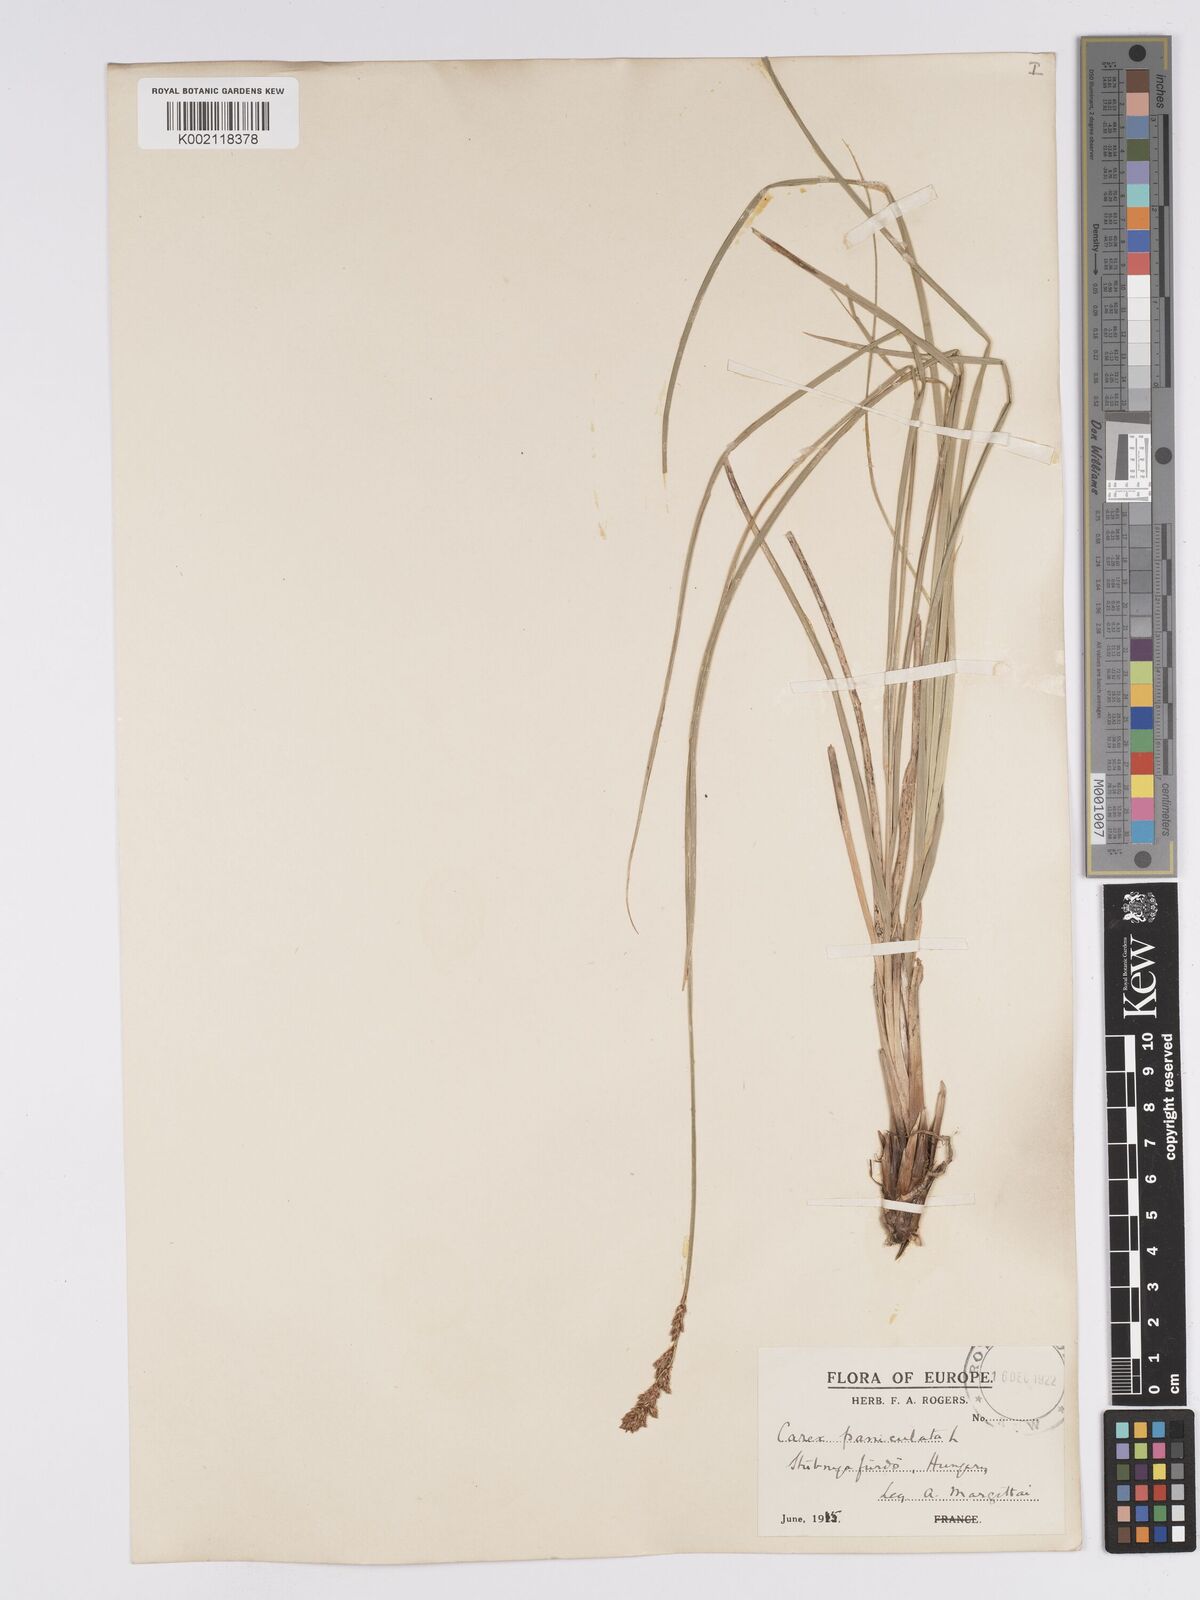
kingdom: Plantae
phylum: Tracheophyta
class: Liliopsida
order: Poales
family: Cyperaceae
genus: Carex
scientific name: Carex paniculata
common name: Greater tussock-sedge
